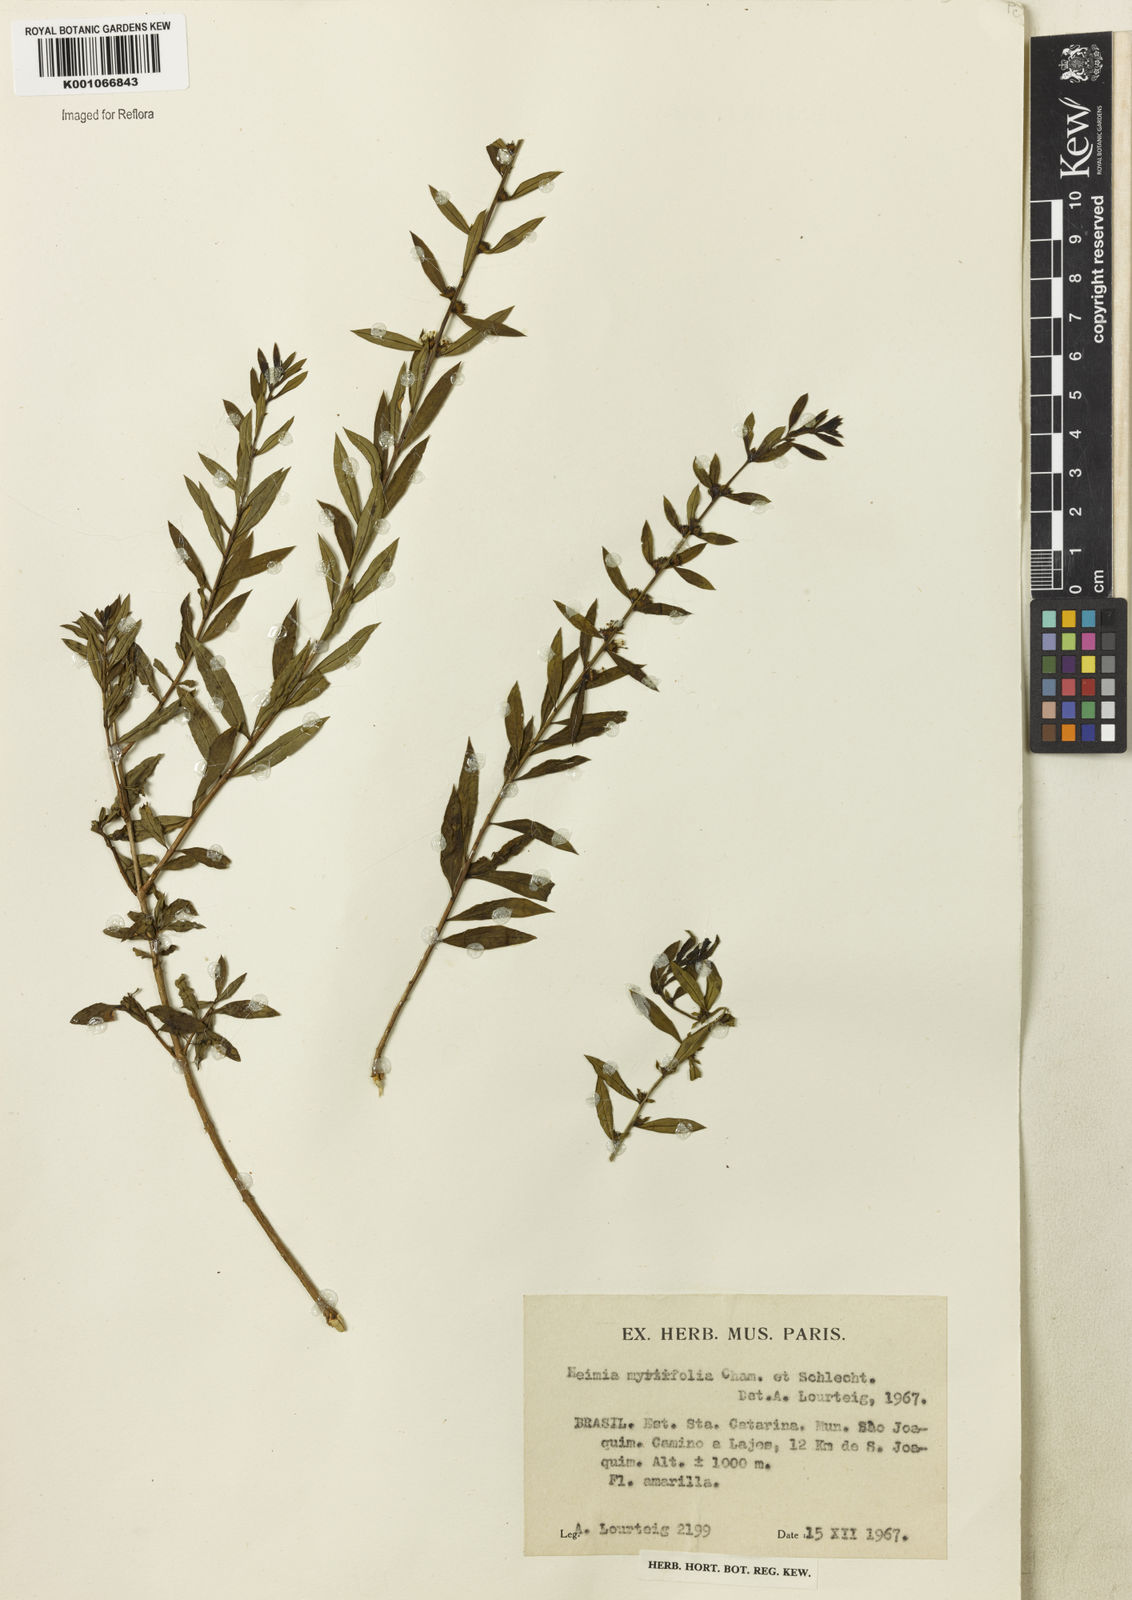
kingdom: Plantae
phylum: Tracheophyta
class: Magnoliopsida
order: Myrtales
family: Lythraceae
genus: Heimia
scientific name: Heimia apetala
